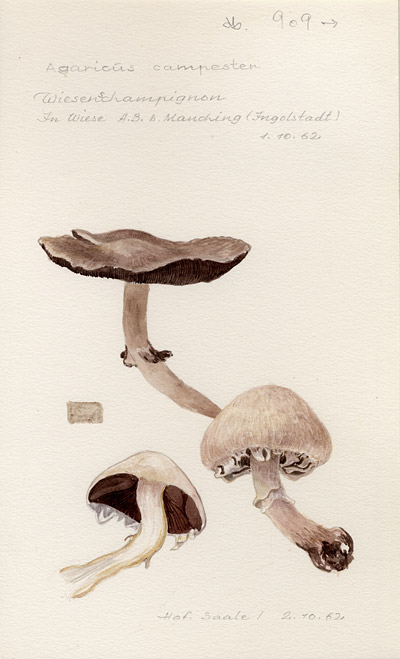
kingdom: Fungi
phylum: Basidiomycota
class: Agaricomycetes
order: Agaricales
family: Agaricaceae
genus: Agaricus
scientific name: Agaricus campestris
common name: Field mushroom
